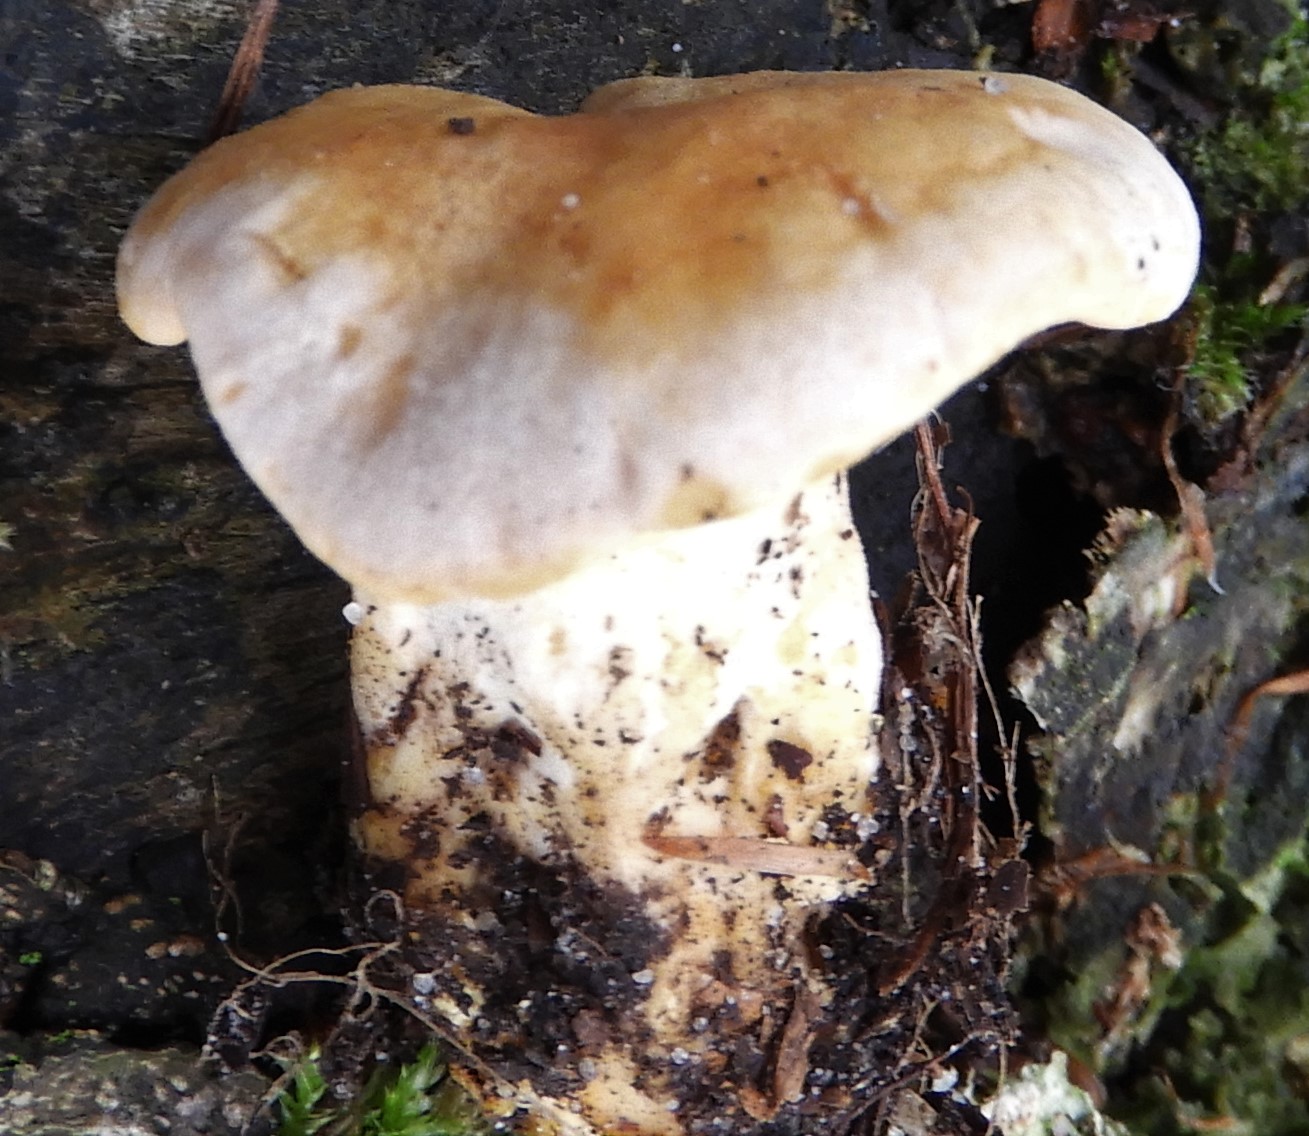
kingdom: Fungi
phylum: Basidiomycota
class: Agaricomycetes
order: Cantharellales
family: Hydnaceae
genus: Cantharellus
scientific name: Cantharellus pallens
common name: bleg kantarel
